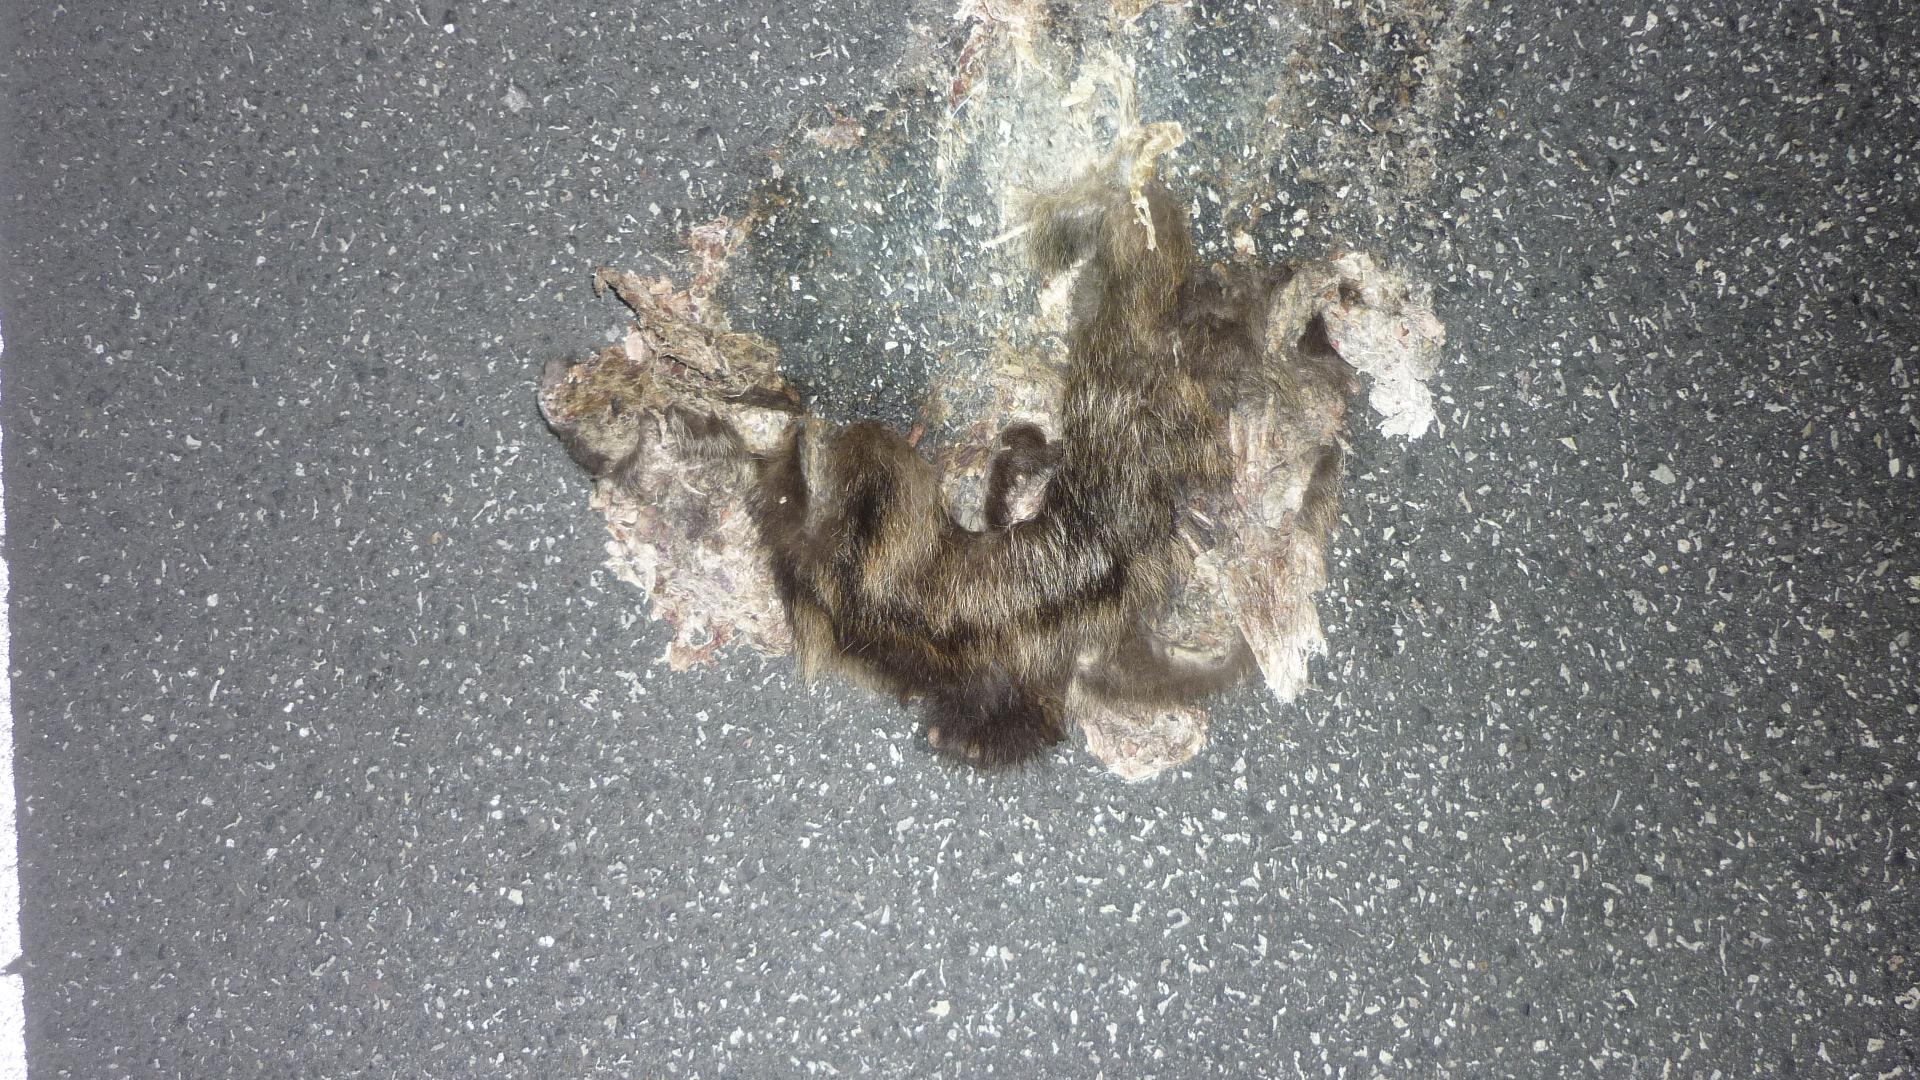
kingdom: Animalia
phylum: Chordata
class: Mammalia
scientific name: Mammalia
